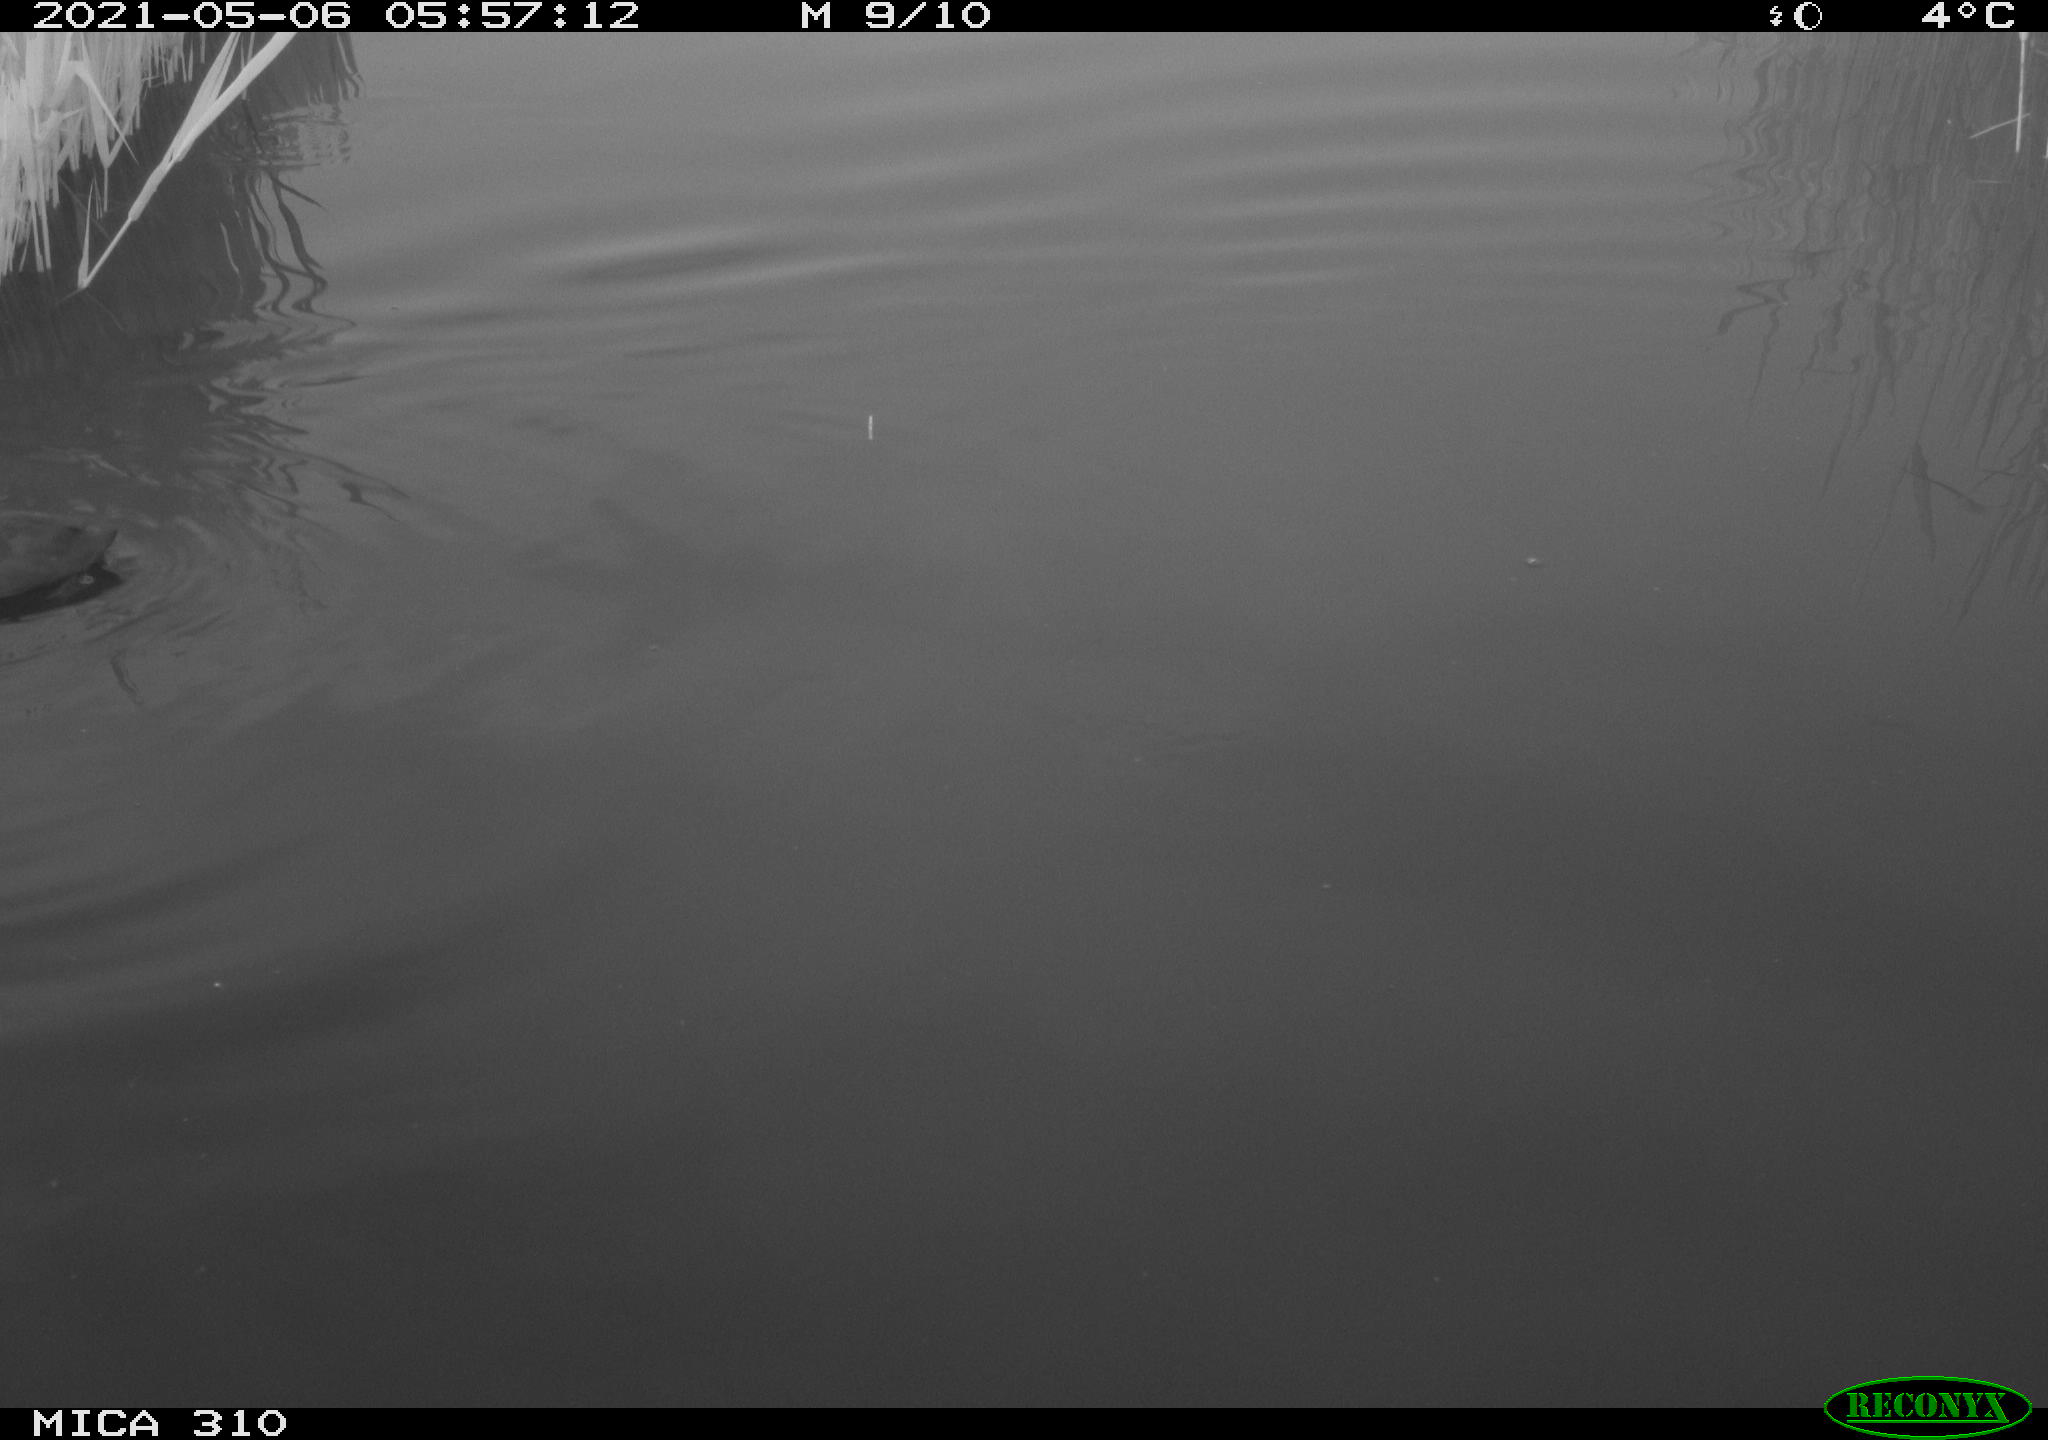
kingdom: Animalia
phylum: Chordata
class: Aves
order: Gruiformes
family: Rallidae
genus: Fulica
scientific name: Fulica atra
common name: Eurasian coot
